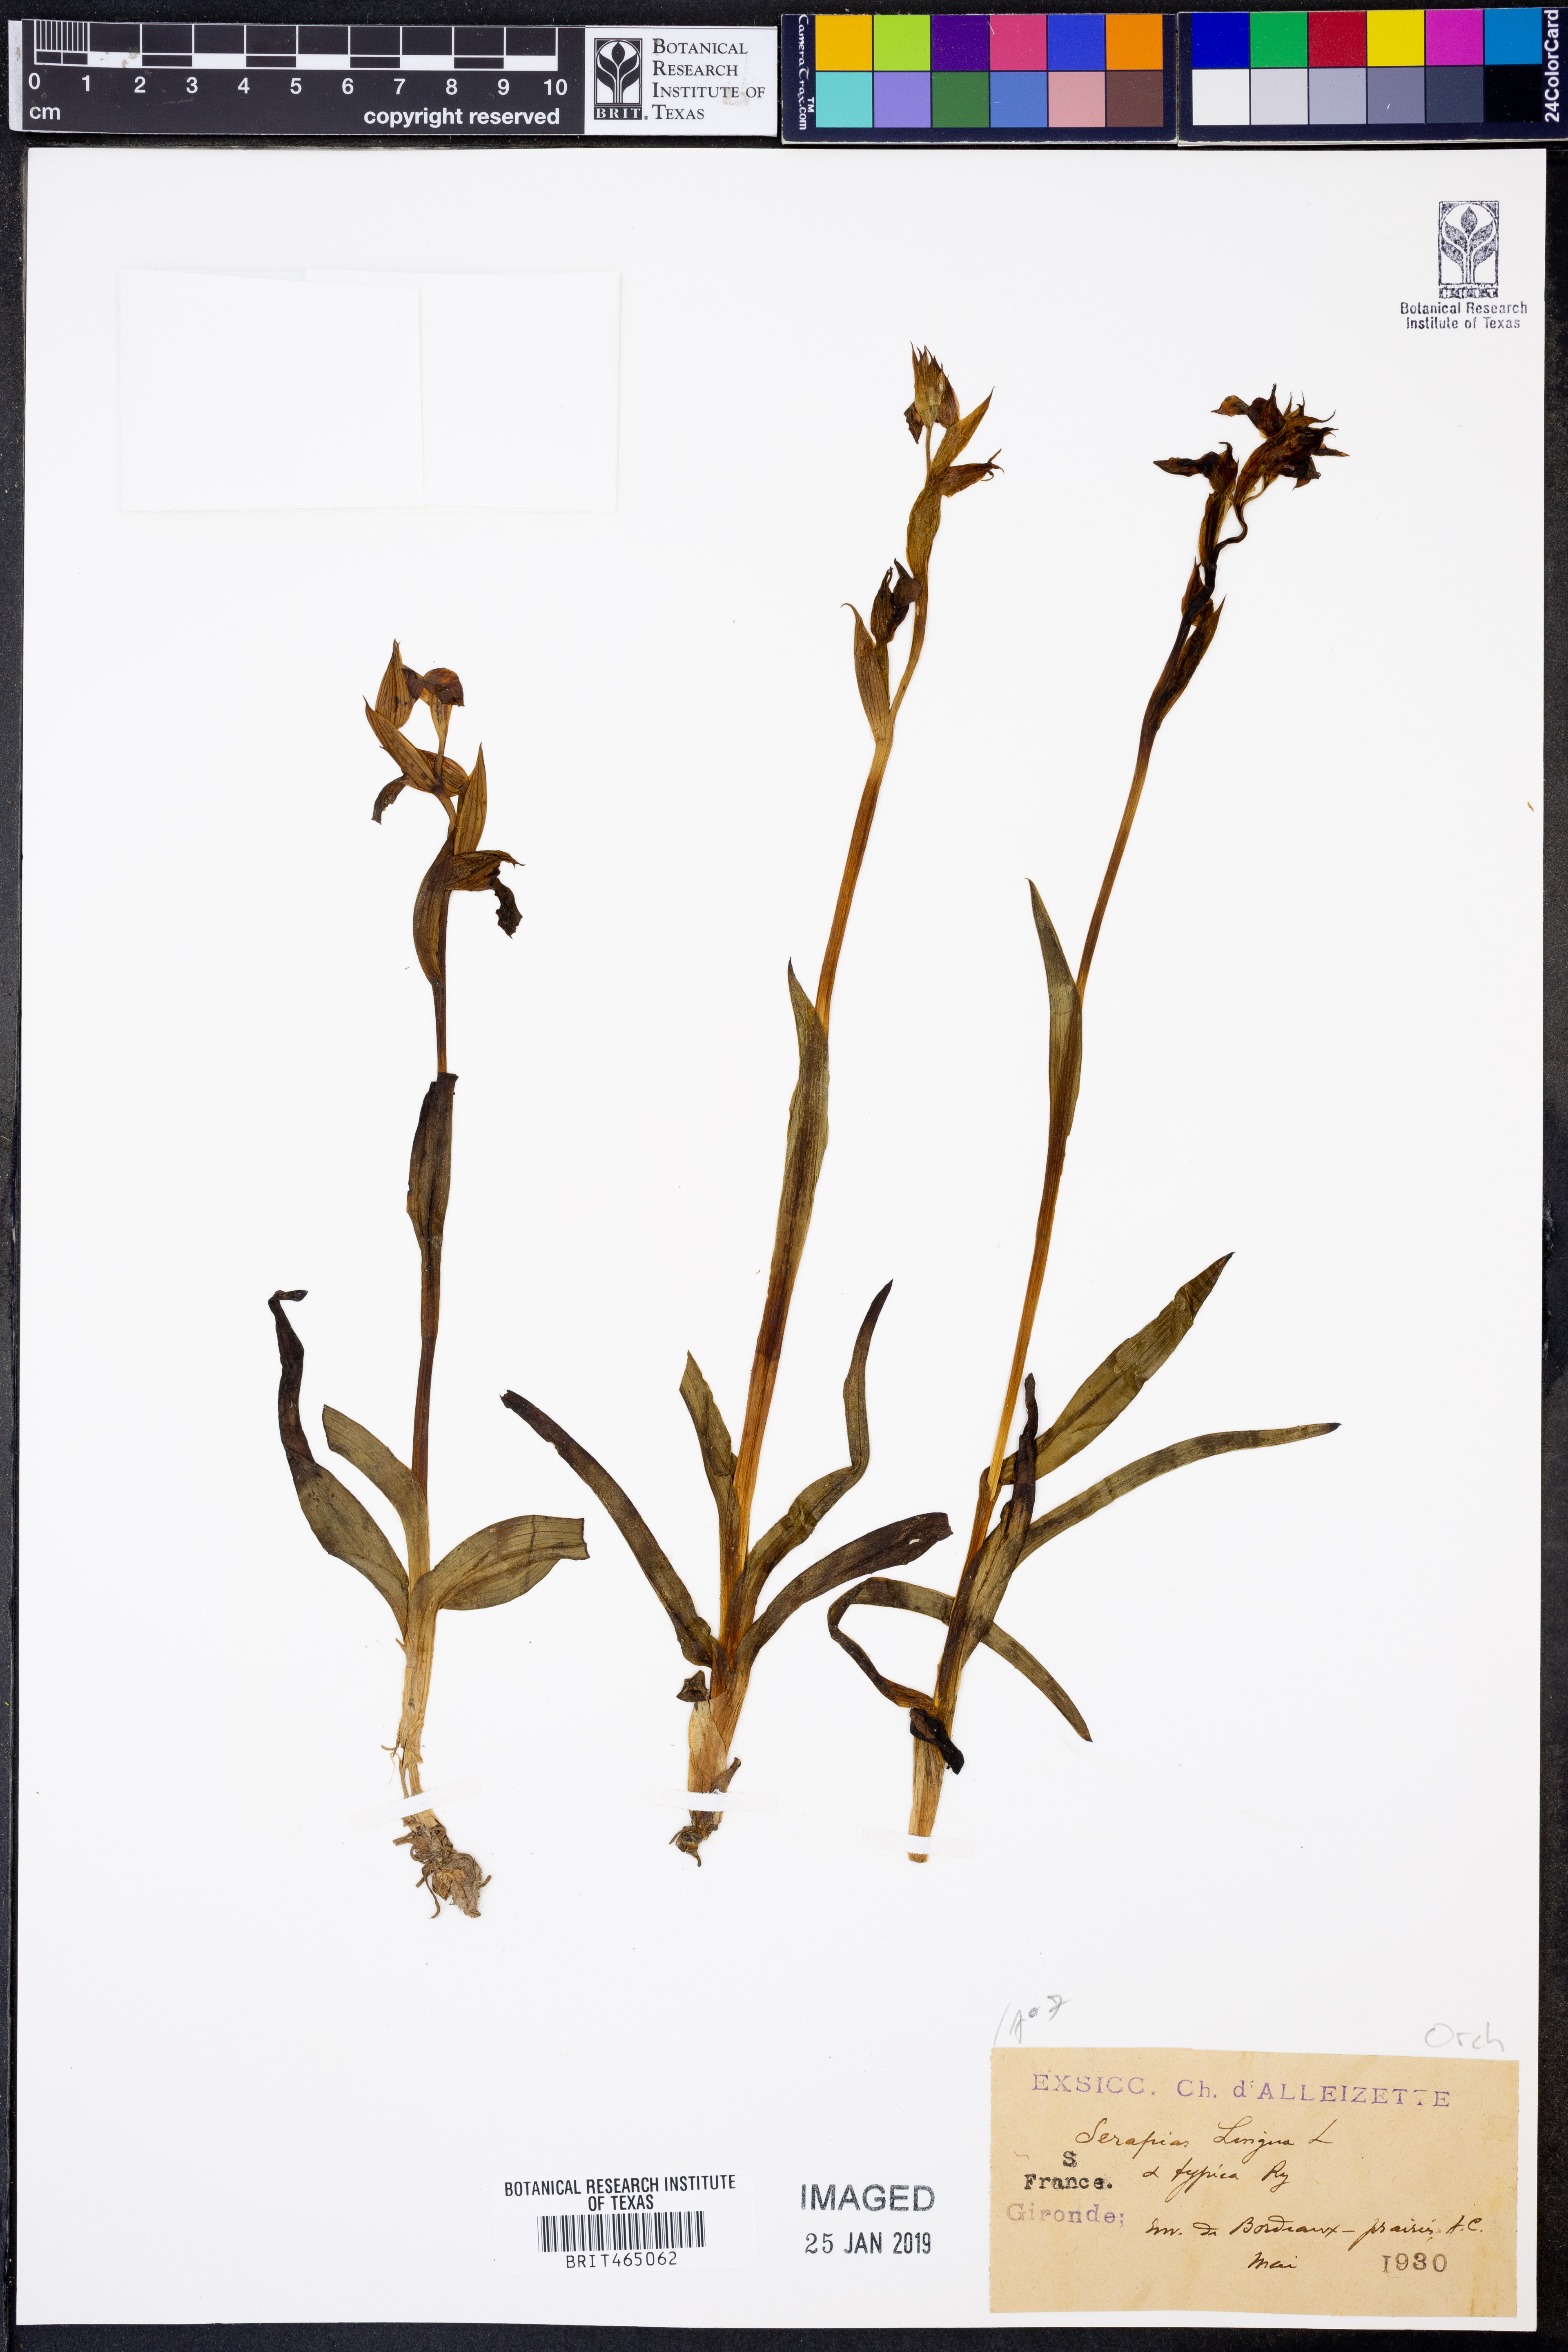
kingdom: Plantae
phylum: Tracheophyta
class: Liliopsida
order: Asparagales
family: Orchidaceae
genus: Serapias
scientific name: Serapias lingua
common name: Tongue-orchid
